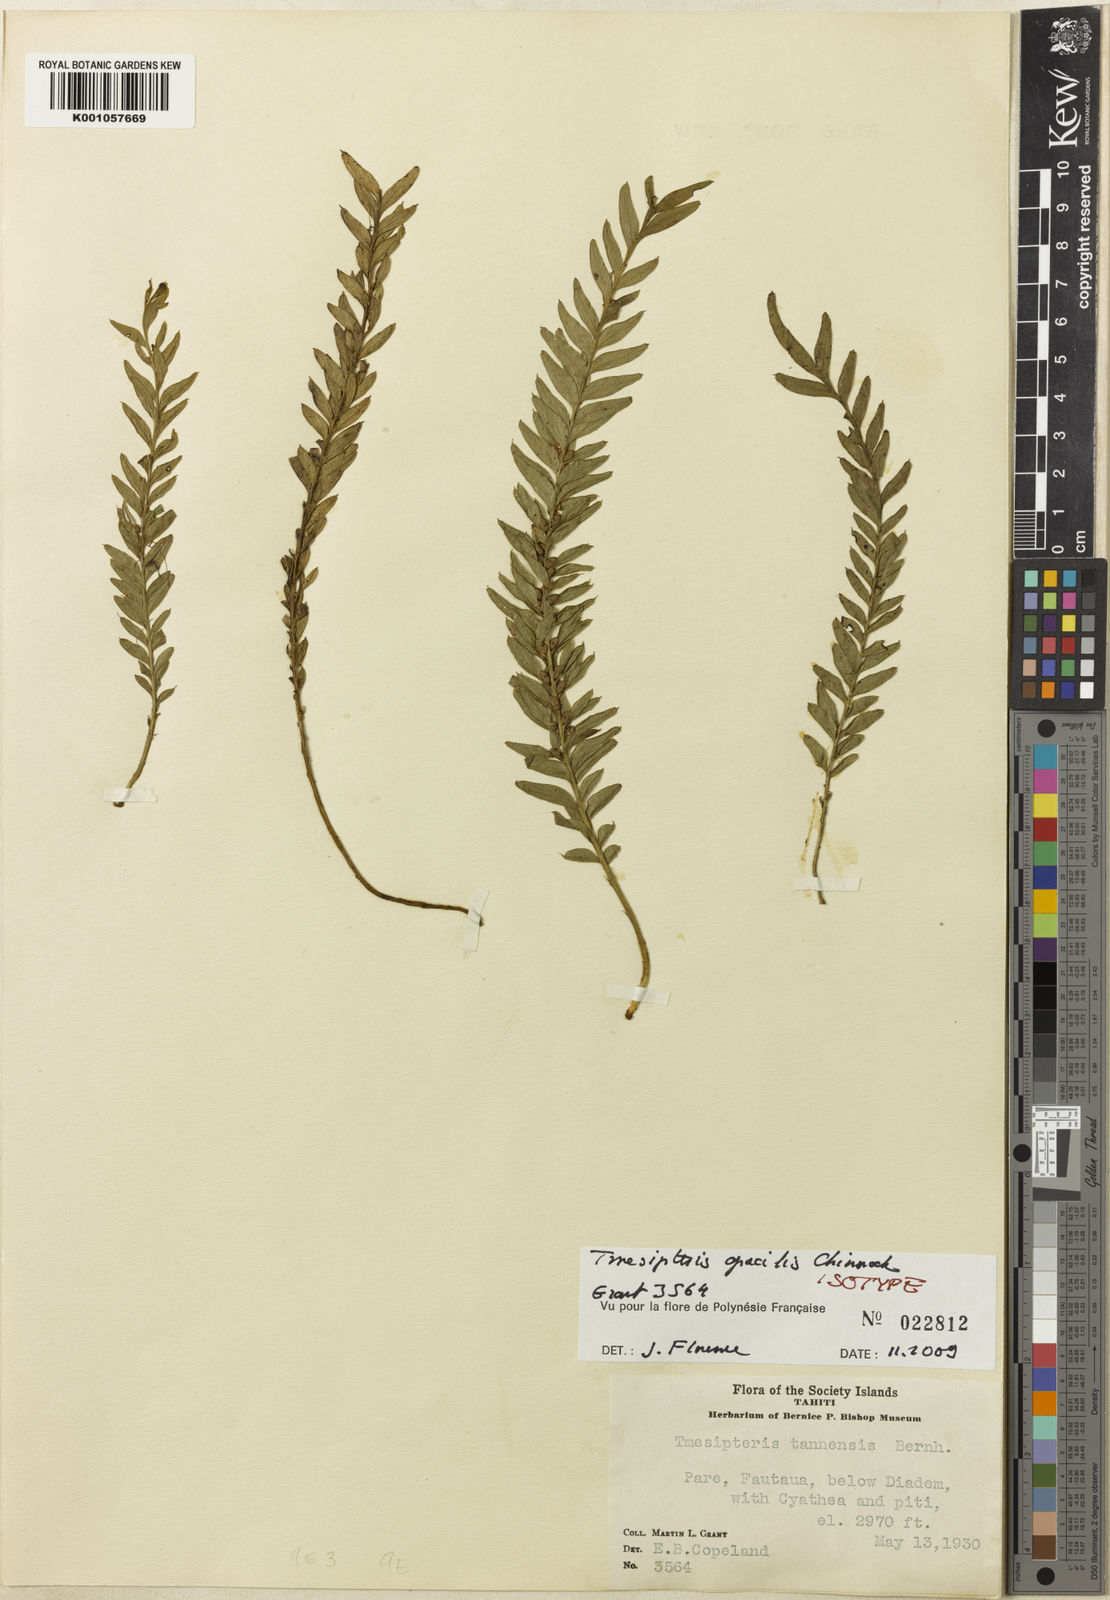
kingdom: Plantae
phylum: Tracheophyta
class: Polypodiopsida
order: Psilotales
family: Psilotaceae
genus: Tmesipteris
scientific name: Tmesipteris gracilis
